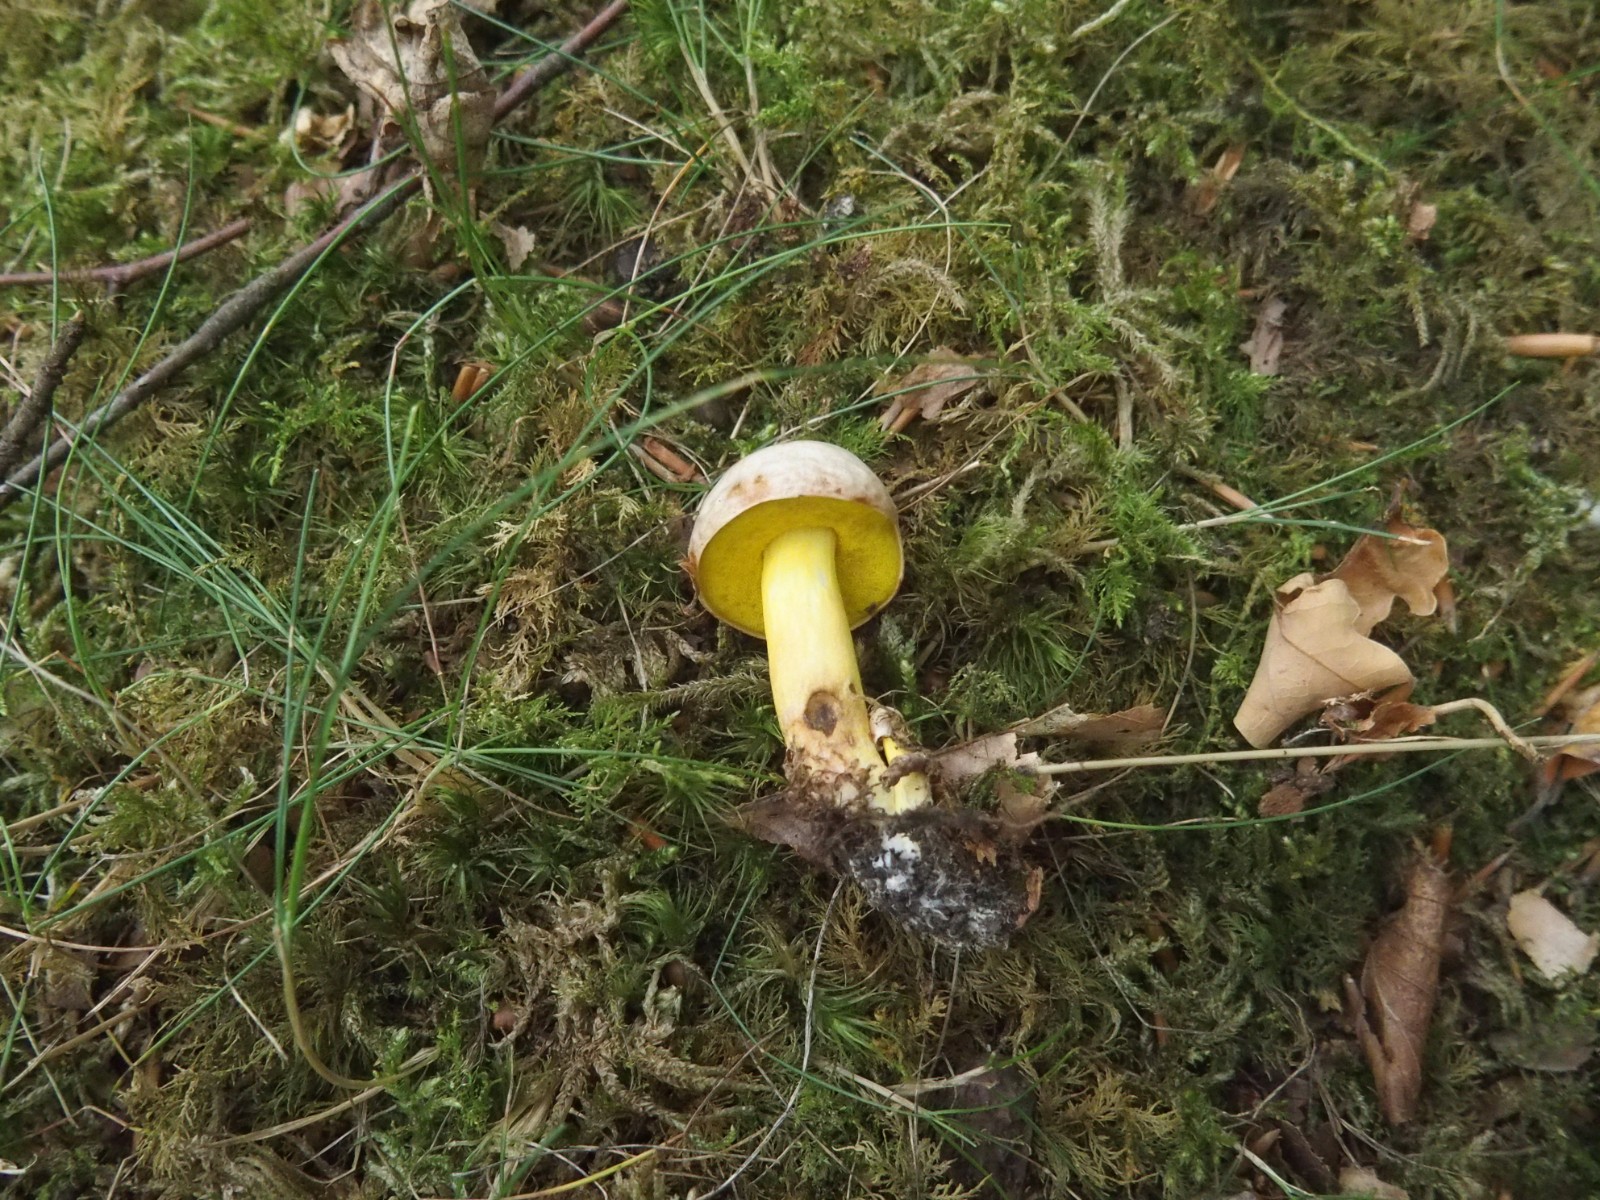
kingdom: Fungi
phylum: Basidiomycota
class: Agaricomycetes
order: Boletales
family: Boletaceae
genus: Aureoboletus
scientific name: Aureoboletus gentilis
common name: guldrørhat
